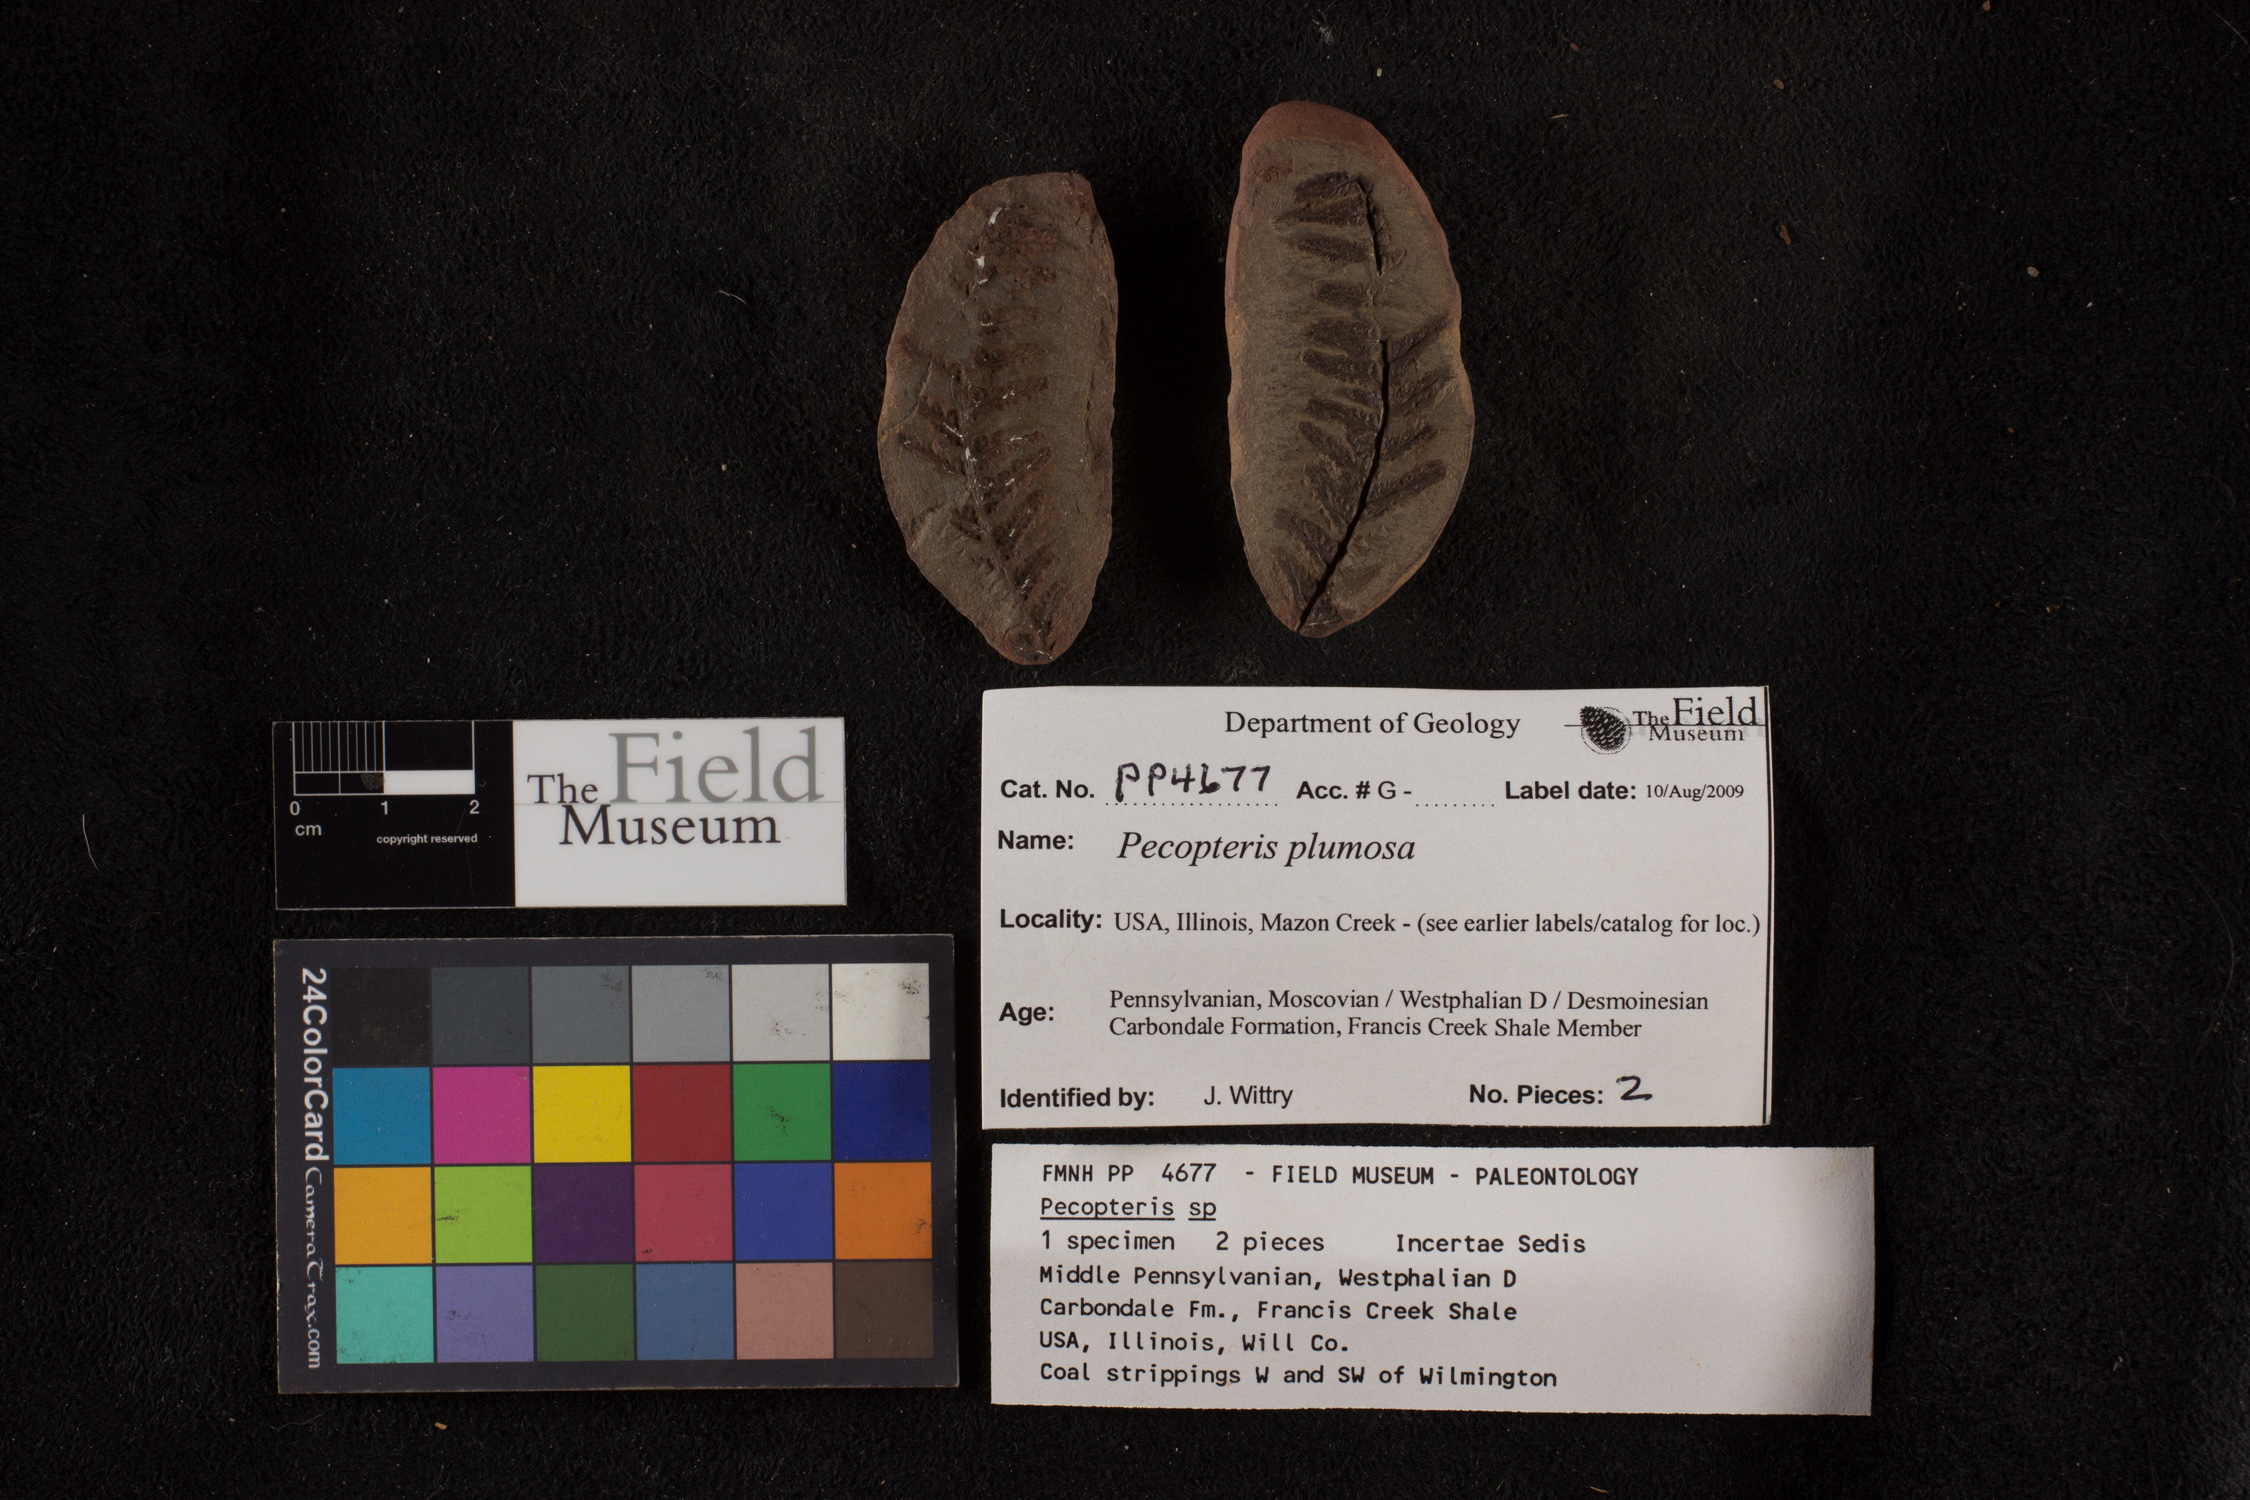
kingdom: Plantae
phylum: Tracheophyta
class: Polypodiopsida
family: Tedeleaceae
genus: Senftenbergia
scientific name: Senftenbergia
